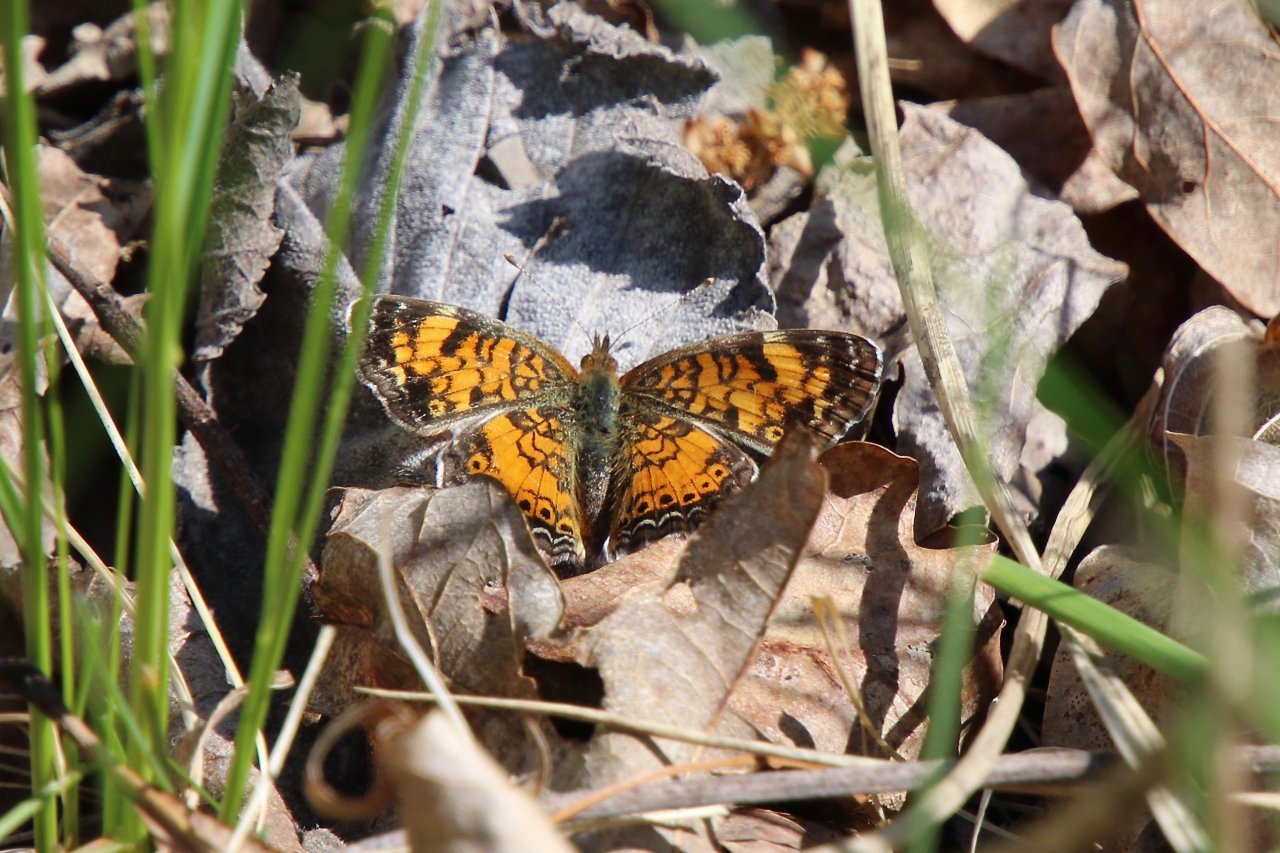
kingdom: Animalia
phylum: Arthropoda
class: Insecta
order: Lepidoptera
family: Nymphalidae
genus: Phyciodes
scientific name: Phyciodes tharos
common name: Pearl Crescent
